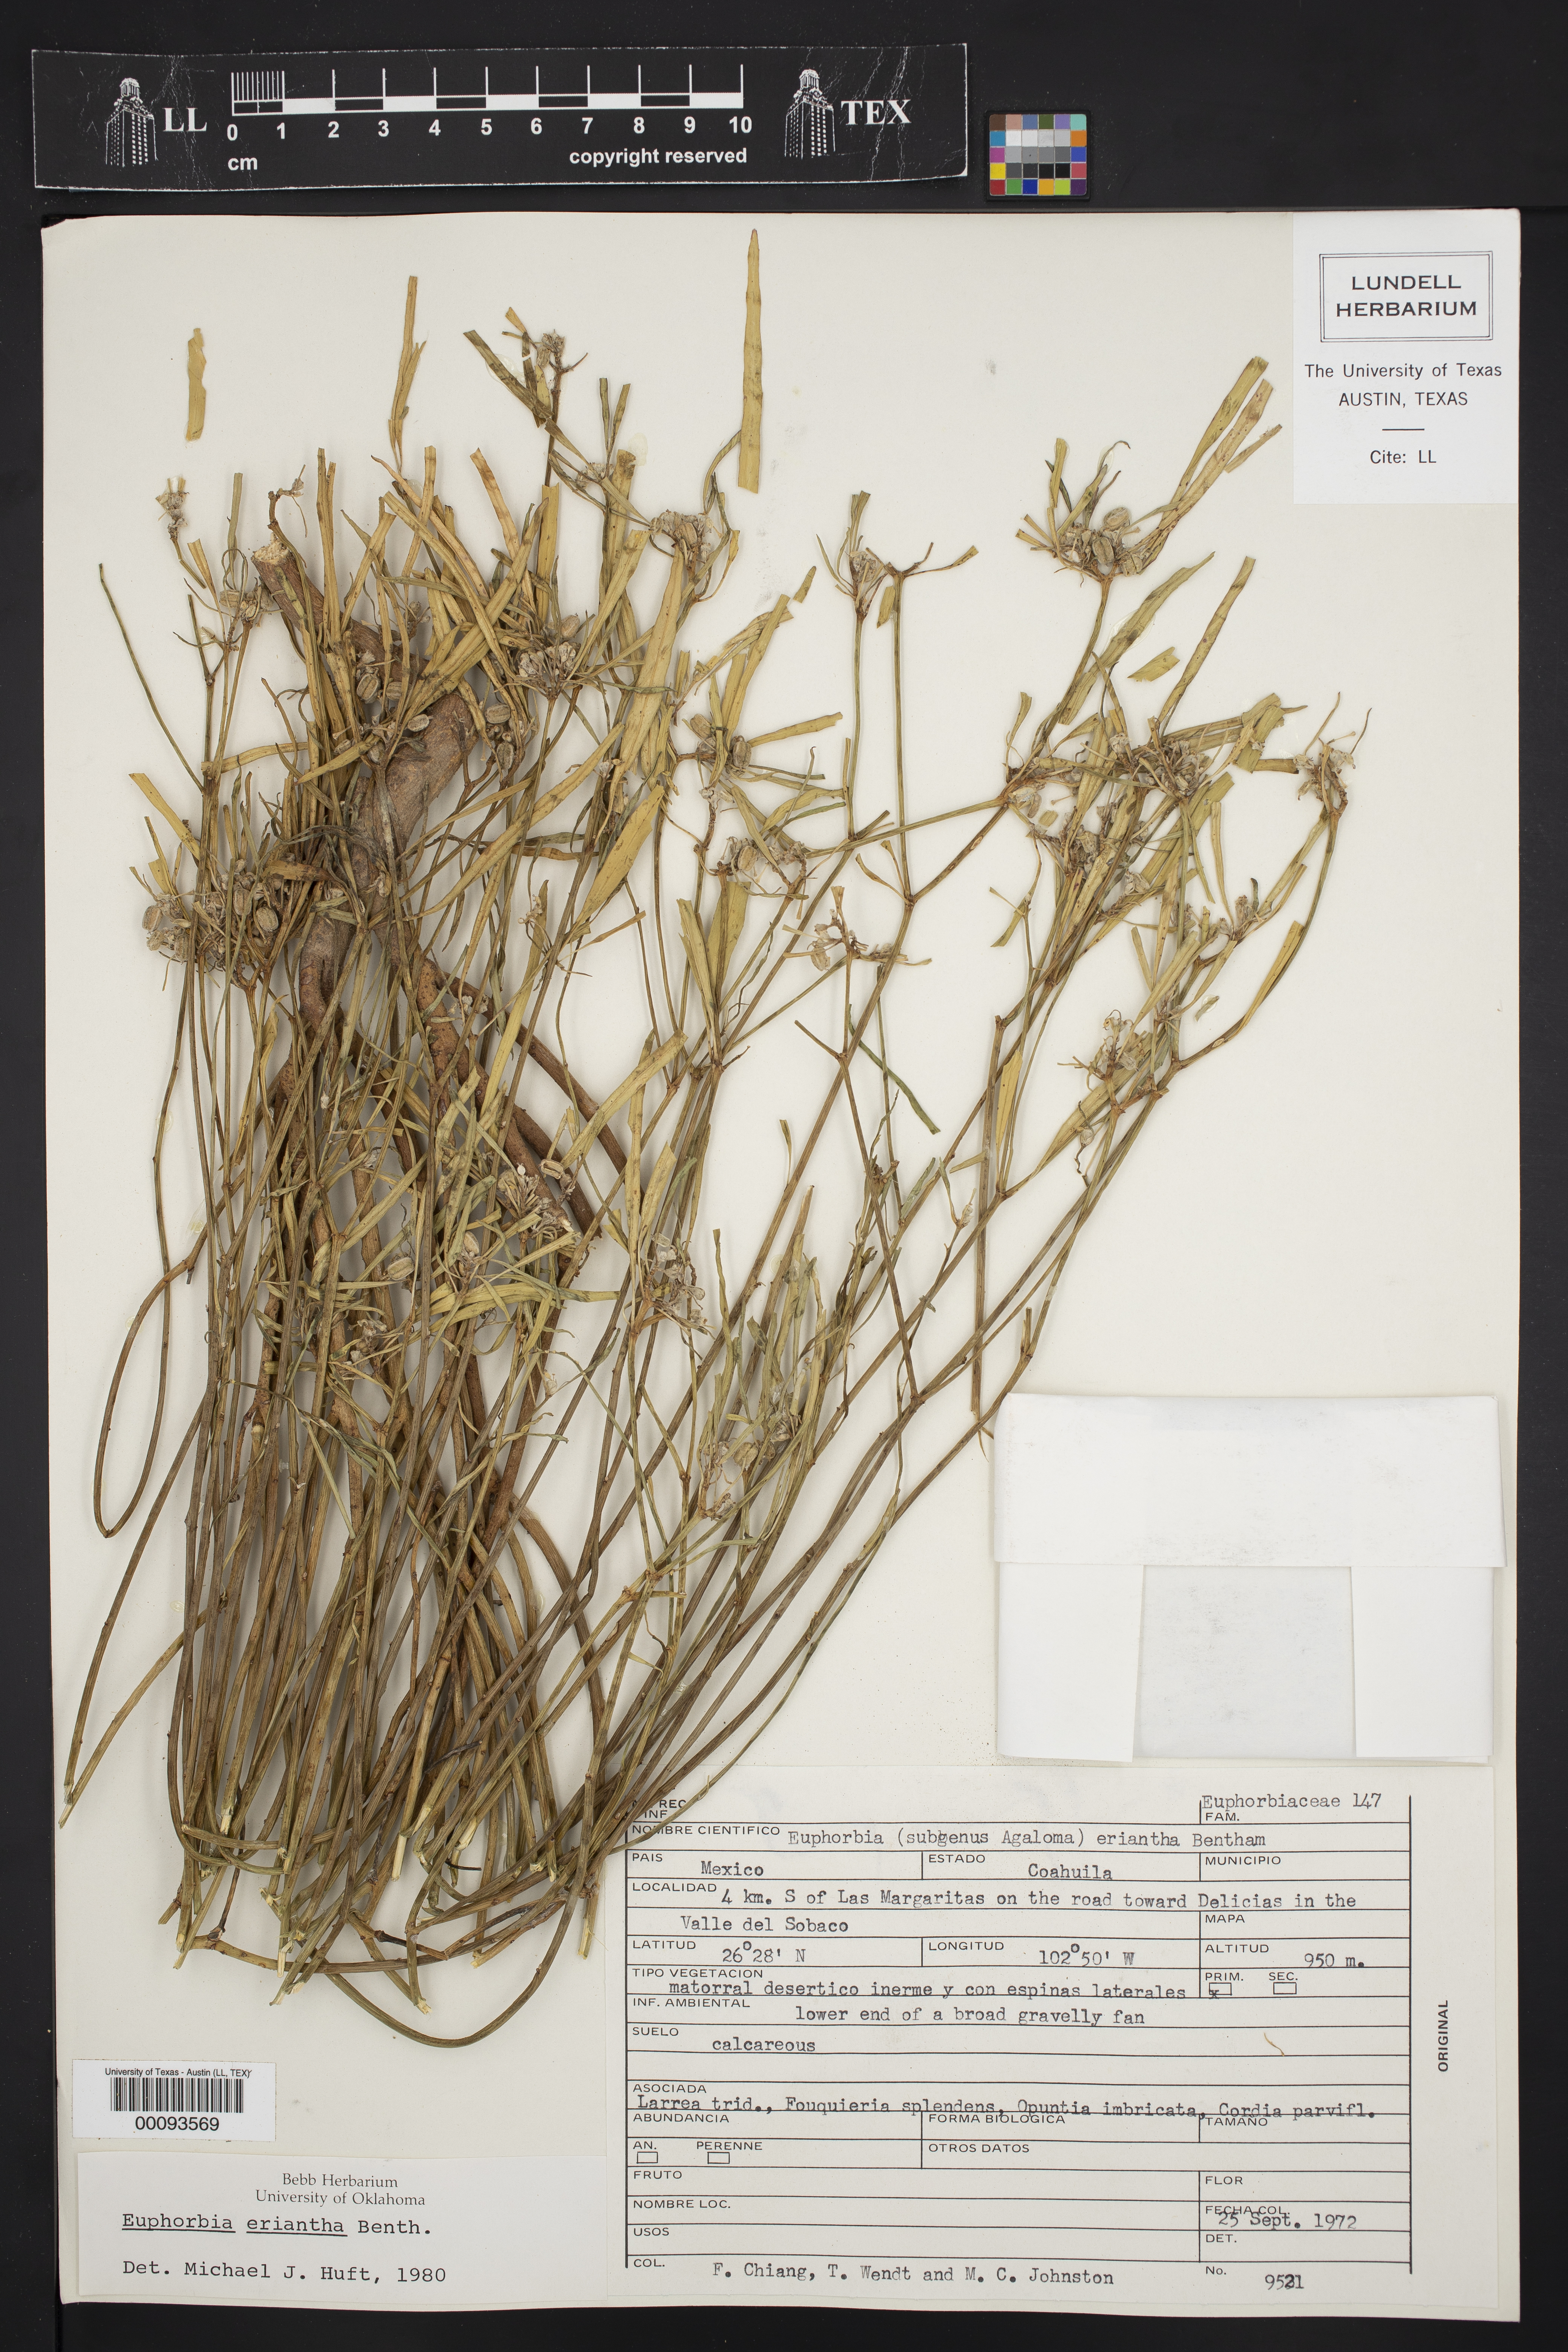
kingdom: Plantae
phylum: Tracheophyta
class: Magnoliopsida
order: Malpighiales
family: Euphorbiaceae
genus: Euphorbia
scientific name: Euphorbia eriantha
